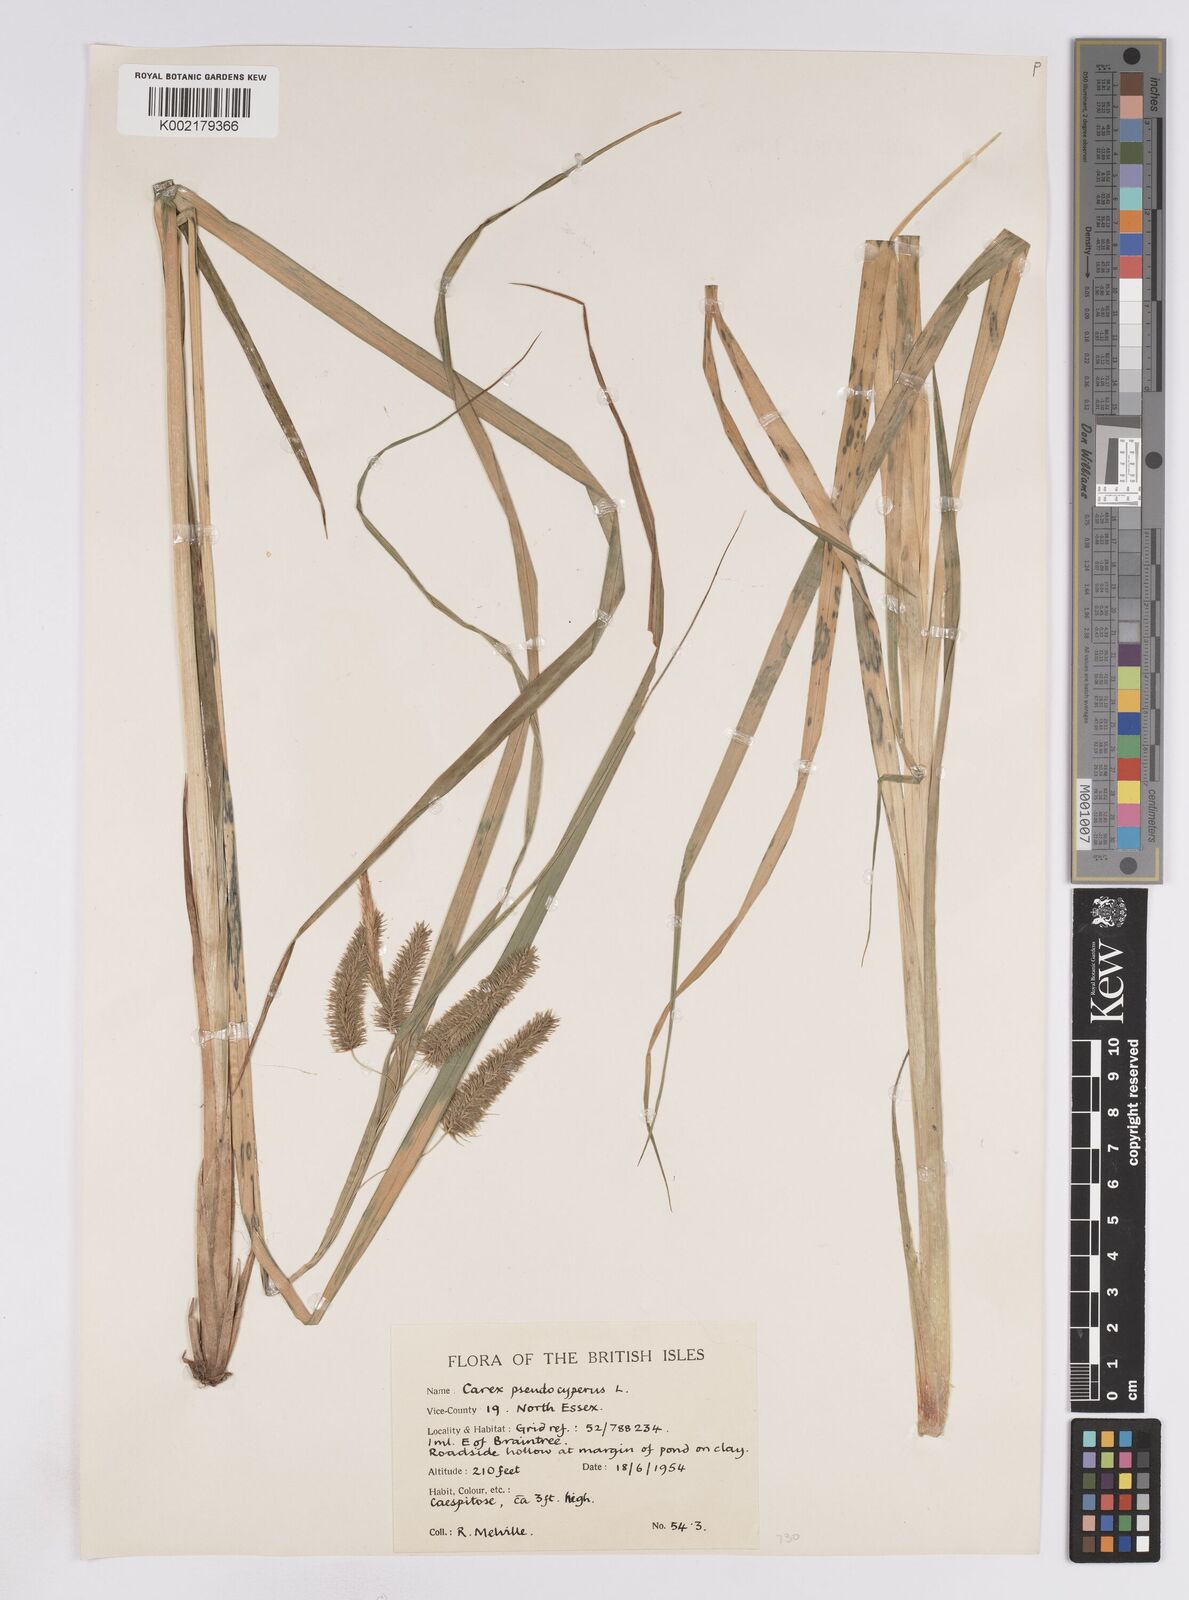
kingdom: Plantae
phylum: Tracheophyta
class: Liliopsida
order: Poales
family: Cyperaceae
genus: Carex
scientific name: Carex pseudocyperus
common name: Cyperus sedge
